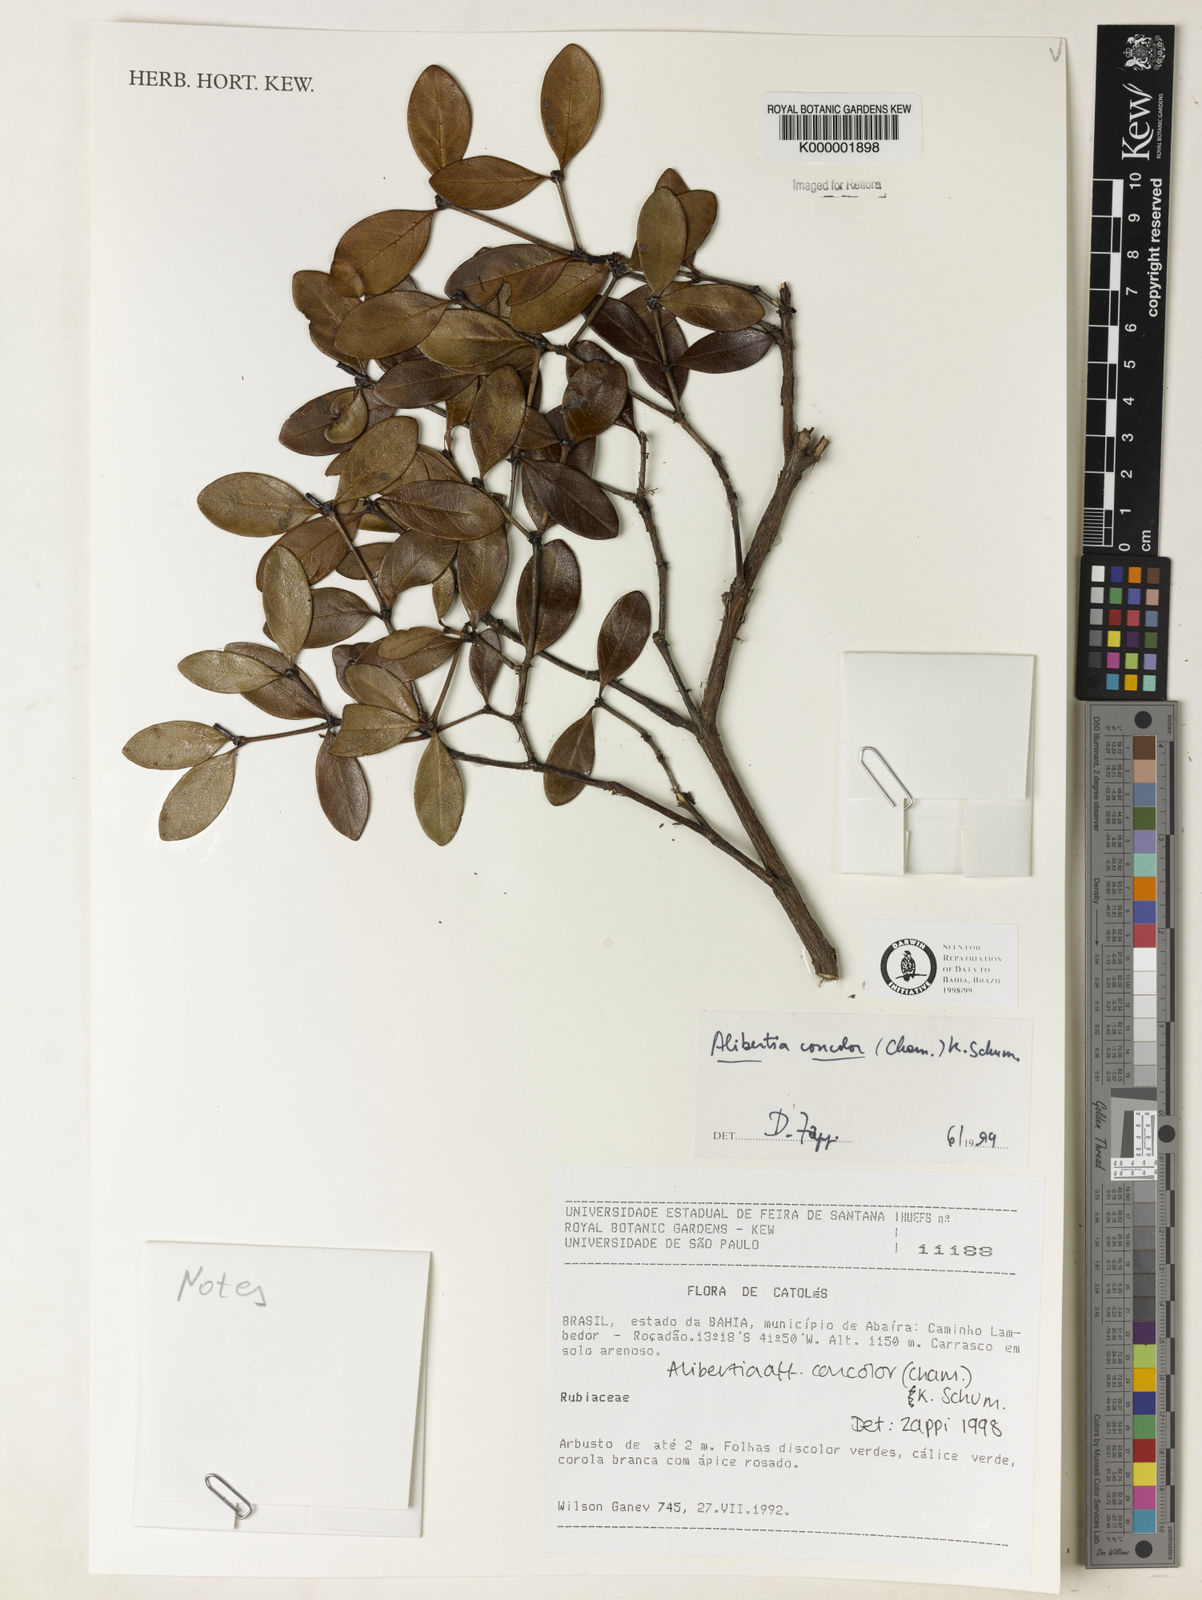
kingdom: Plantae
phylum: Tracheophyta
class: Magnoliopsida
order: Gentianales
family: Rubiaceae
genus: Cordiera
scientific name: Cordiera rigida
